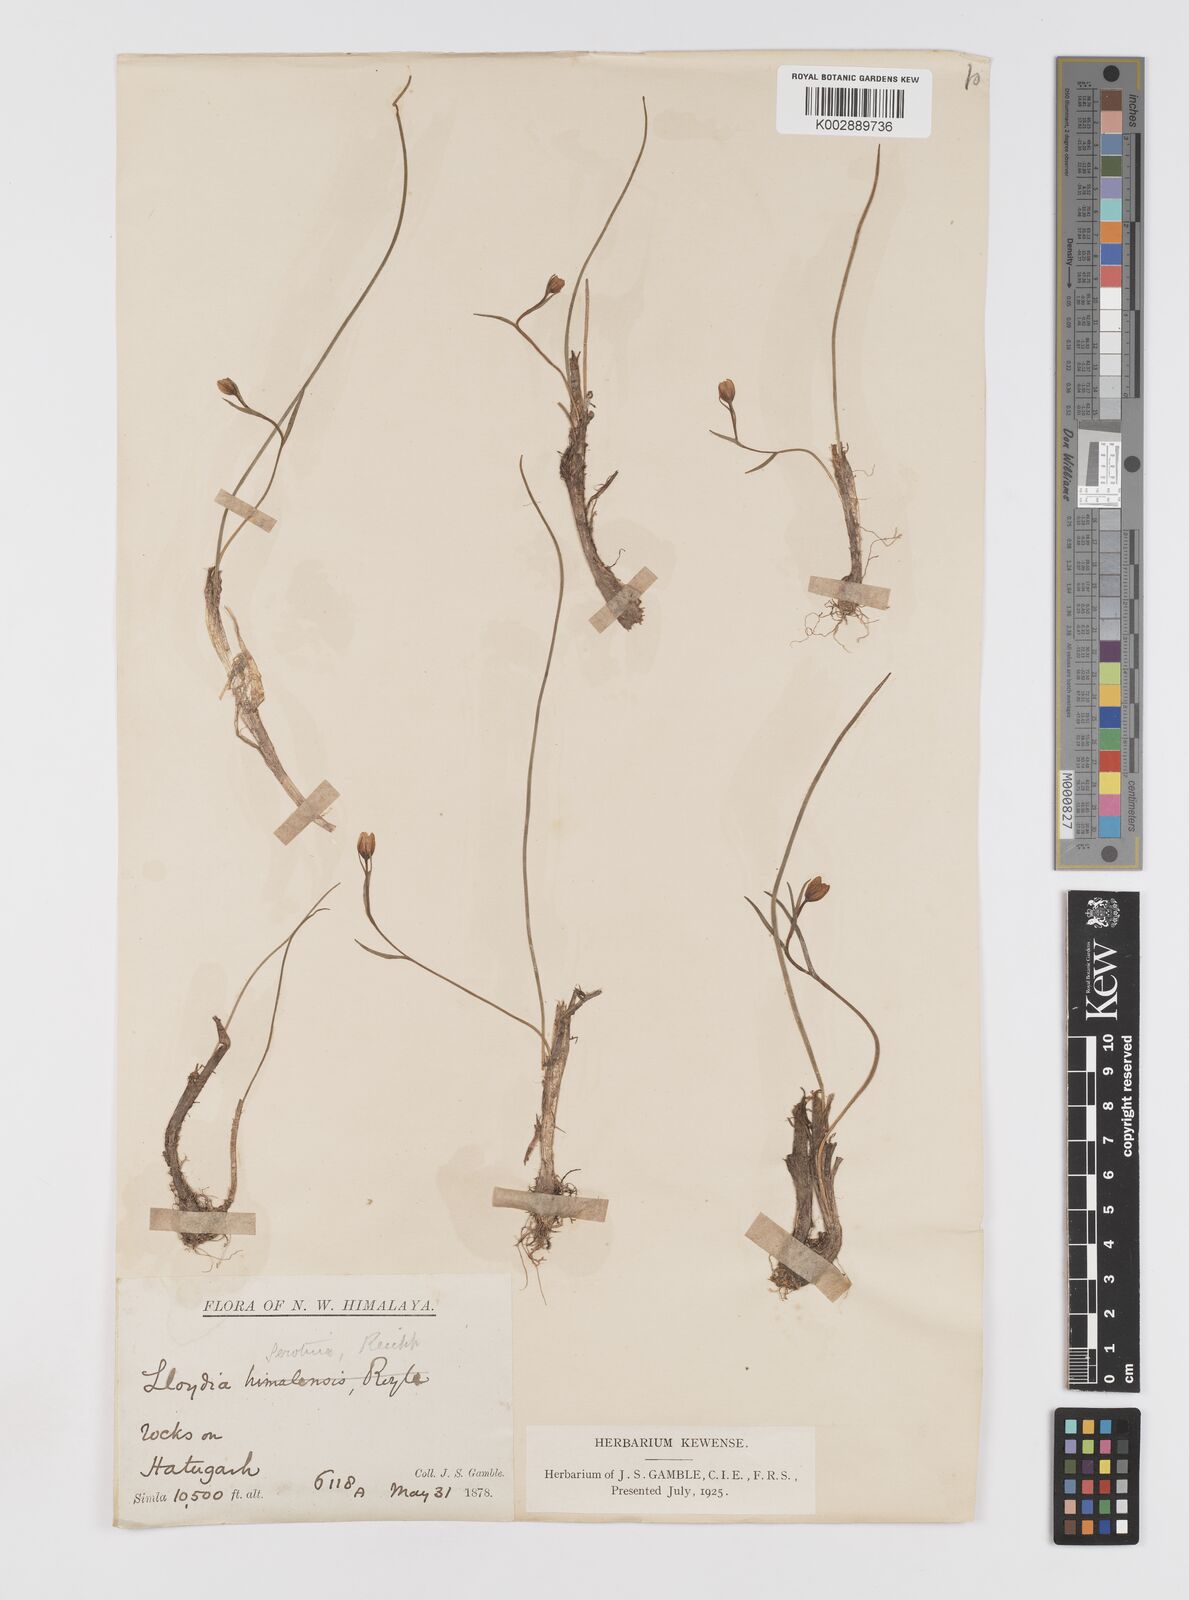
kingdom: Plantae
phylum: Tracheophyta
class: Liliopsida
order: Liliales
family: Liliaceae
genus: Gagea
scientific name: Gagea serotina
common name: Snowdon lily
